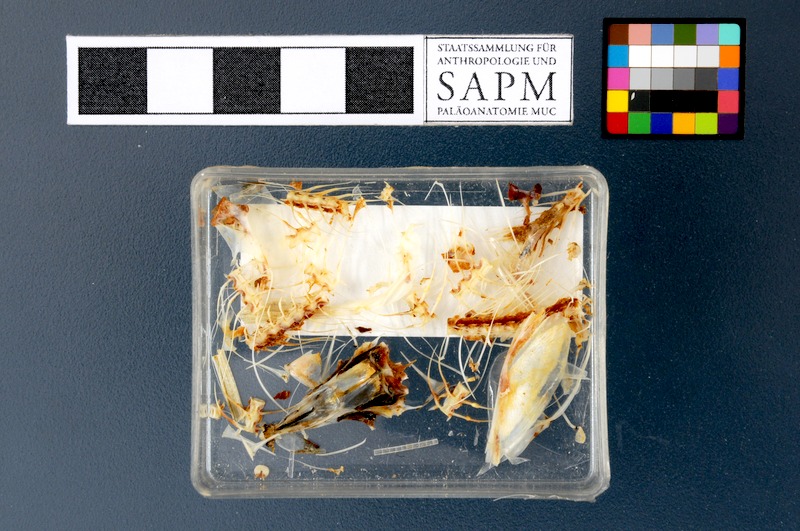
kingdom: Animalia
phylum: Chordata
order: Clupeiformes
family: Engraulidae
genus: Thrissa
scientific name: Thrissa
